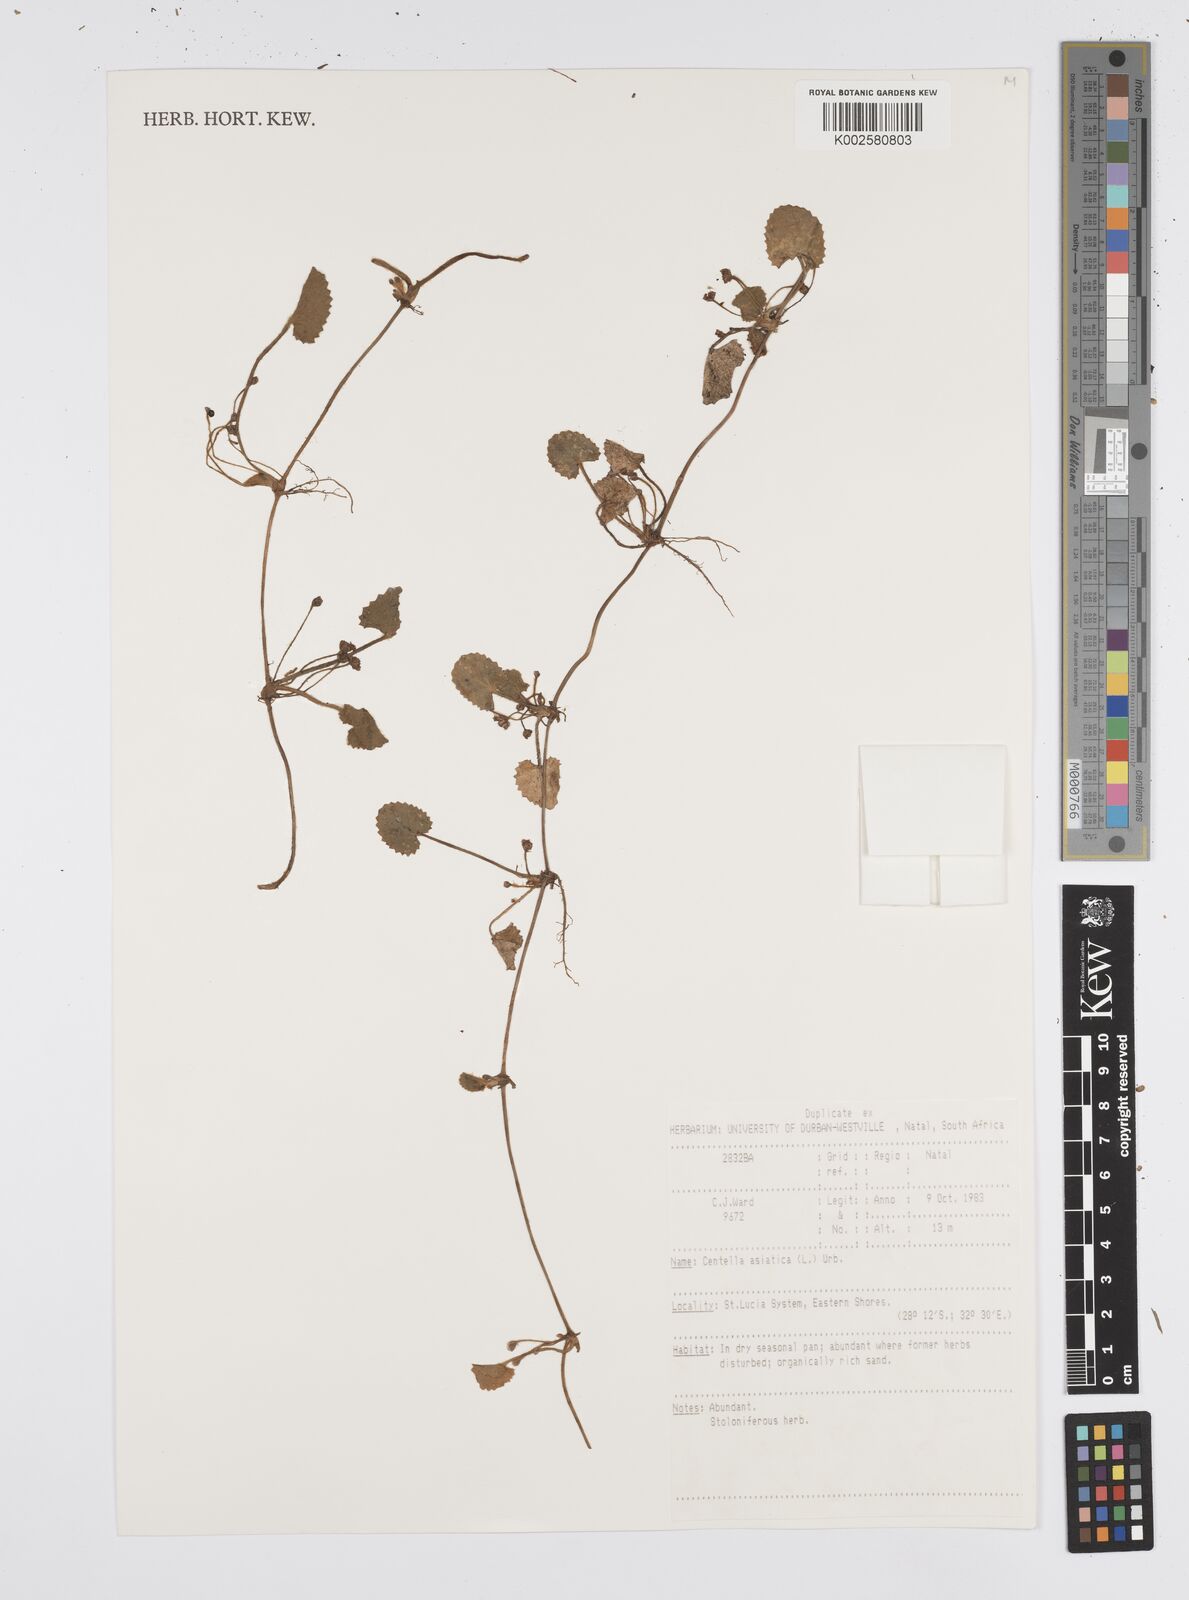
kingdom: Plantae
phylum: Tracheophyta
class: Magnoliopsida
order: Apiales
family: Apiaceae
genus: Centella
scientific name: Centella coriacea
